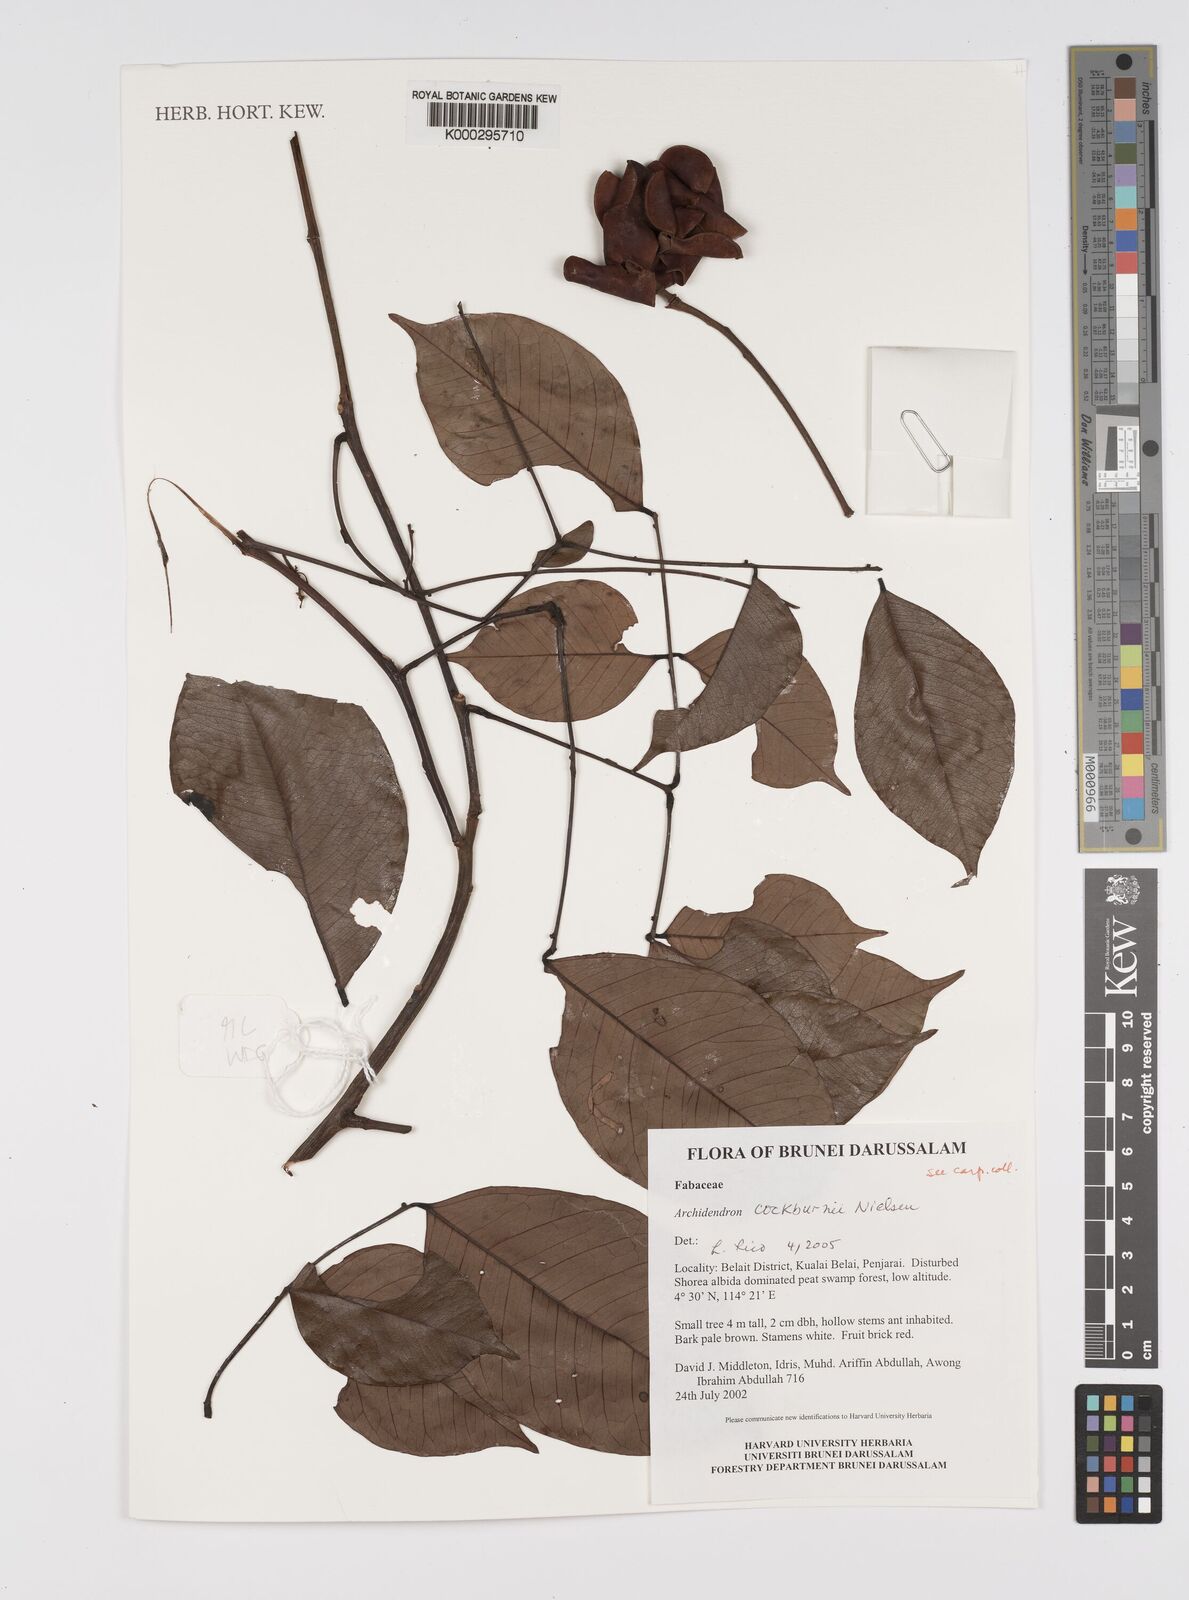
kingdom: Plantae
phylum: Tracheophyta
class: Magnoliopsida
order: Fabales
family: Fabaceae
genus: Archidendron
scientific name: Archidendron cockburnii
